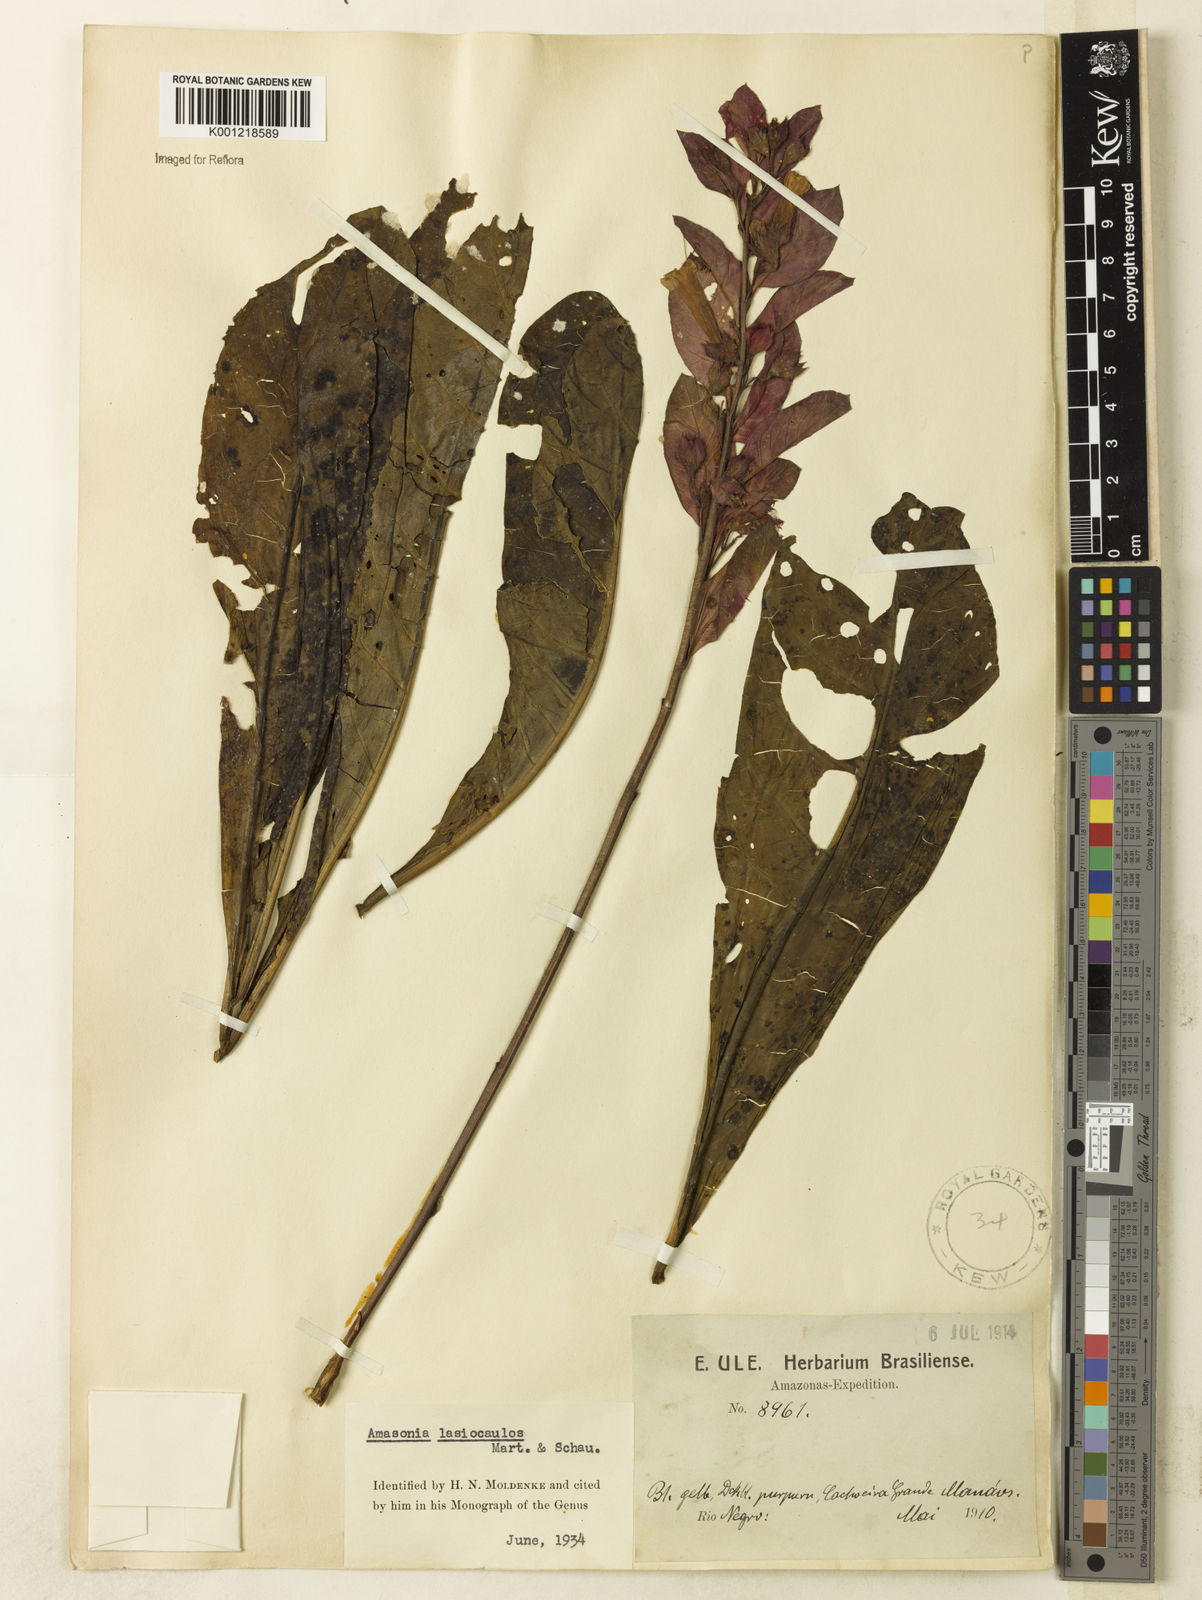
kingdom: Plantae
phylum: Tracheophyta
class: Magnoliopsida
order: Lamiales
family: Lamiaceae
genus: Amasonia
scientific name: Amasonia
